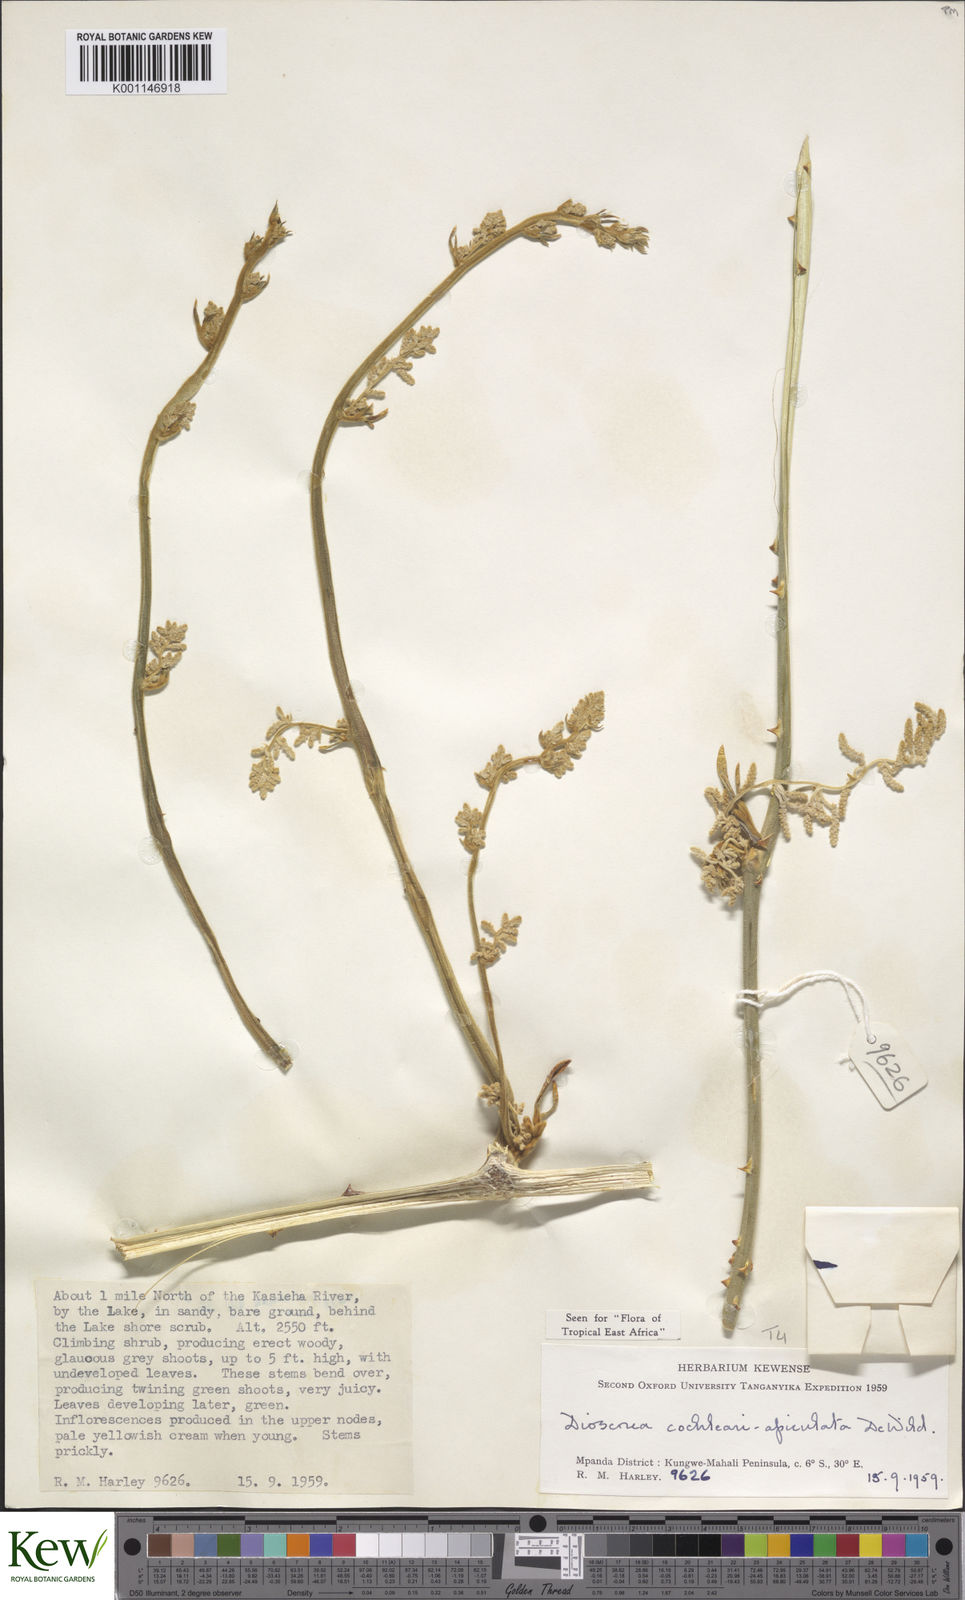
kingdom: Plantae
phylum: Tracheophyta
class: Liliopsida
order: Dioscoreales
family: Dioscoreaceae
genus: Dioscorea
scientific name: Dioscorea cochleariapiculata
